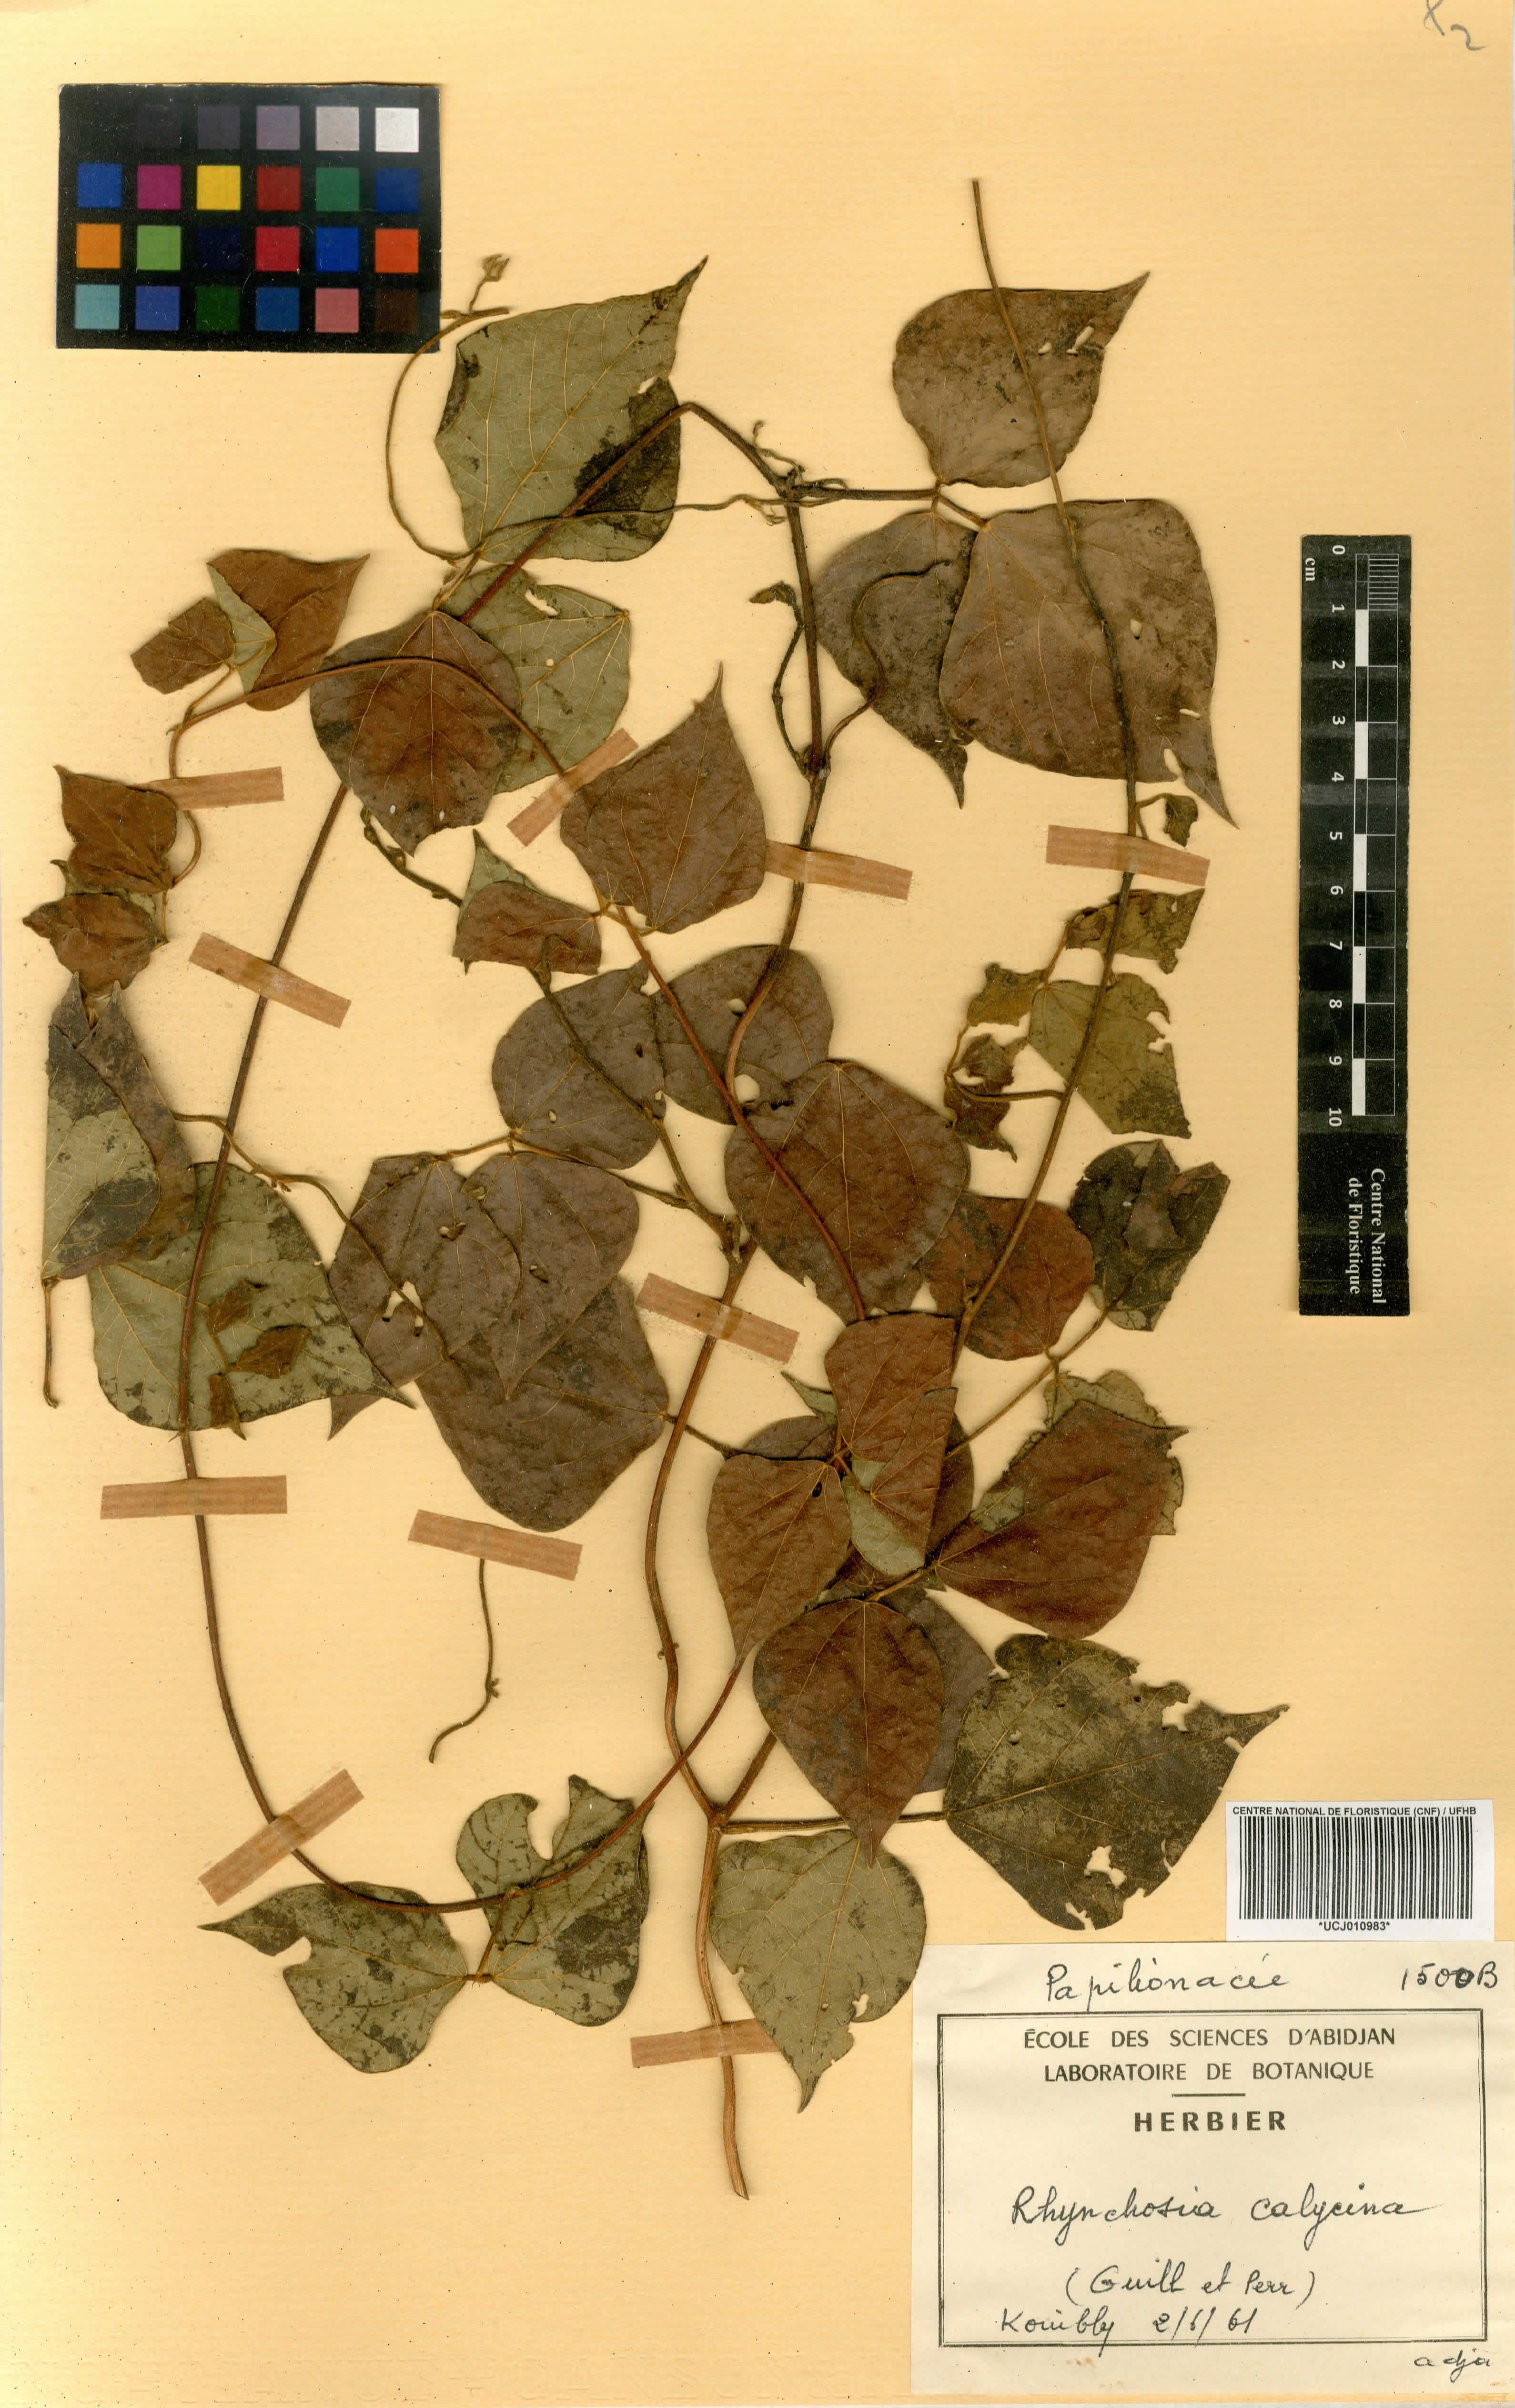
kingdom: Plantae
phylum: Tracheophyta
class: Magnoliopsida
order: Fabales
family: Fabaceae
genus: Rhynchosia
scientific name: Rhynchosia calycina
